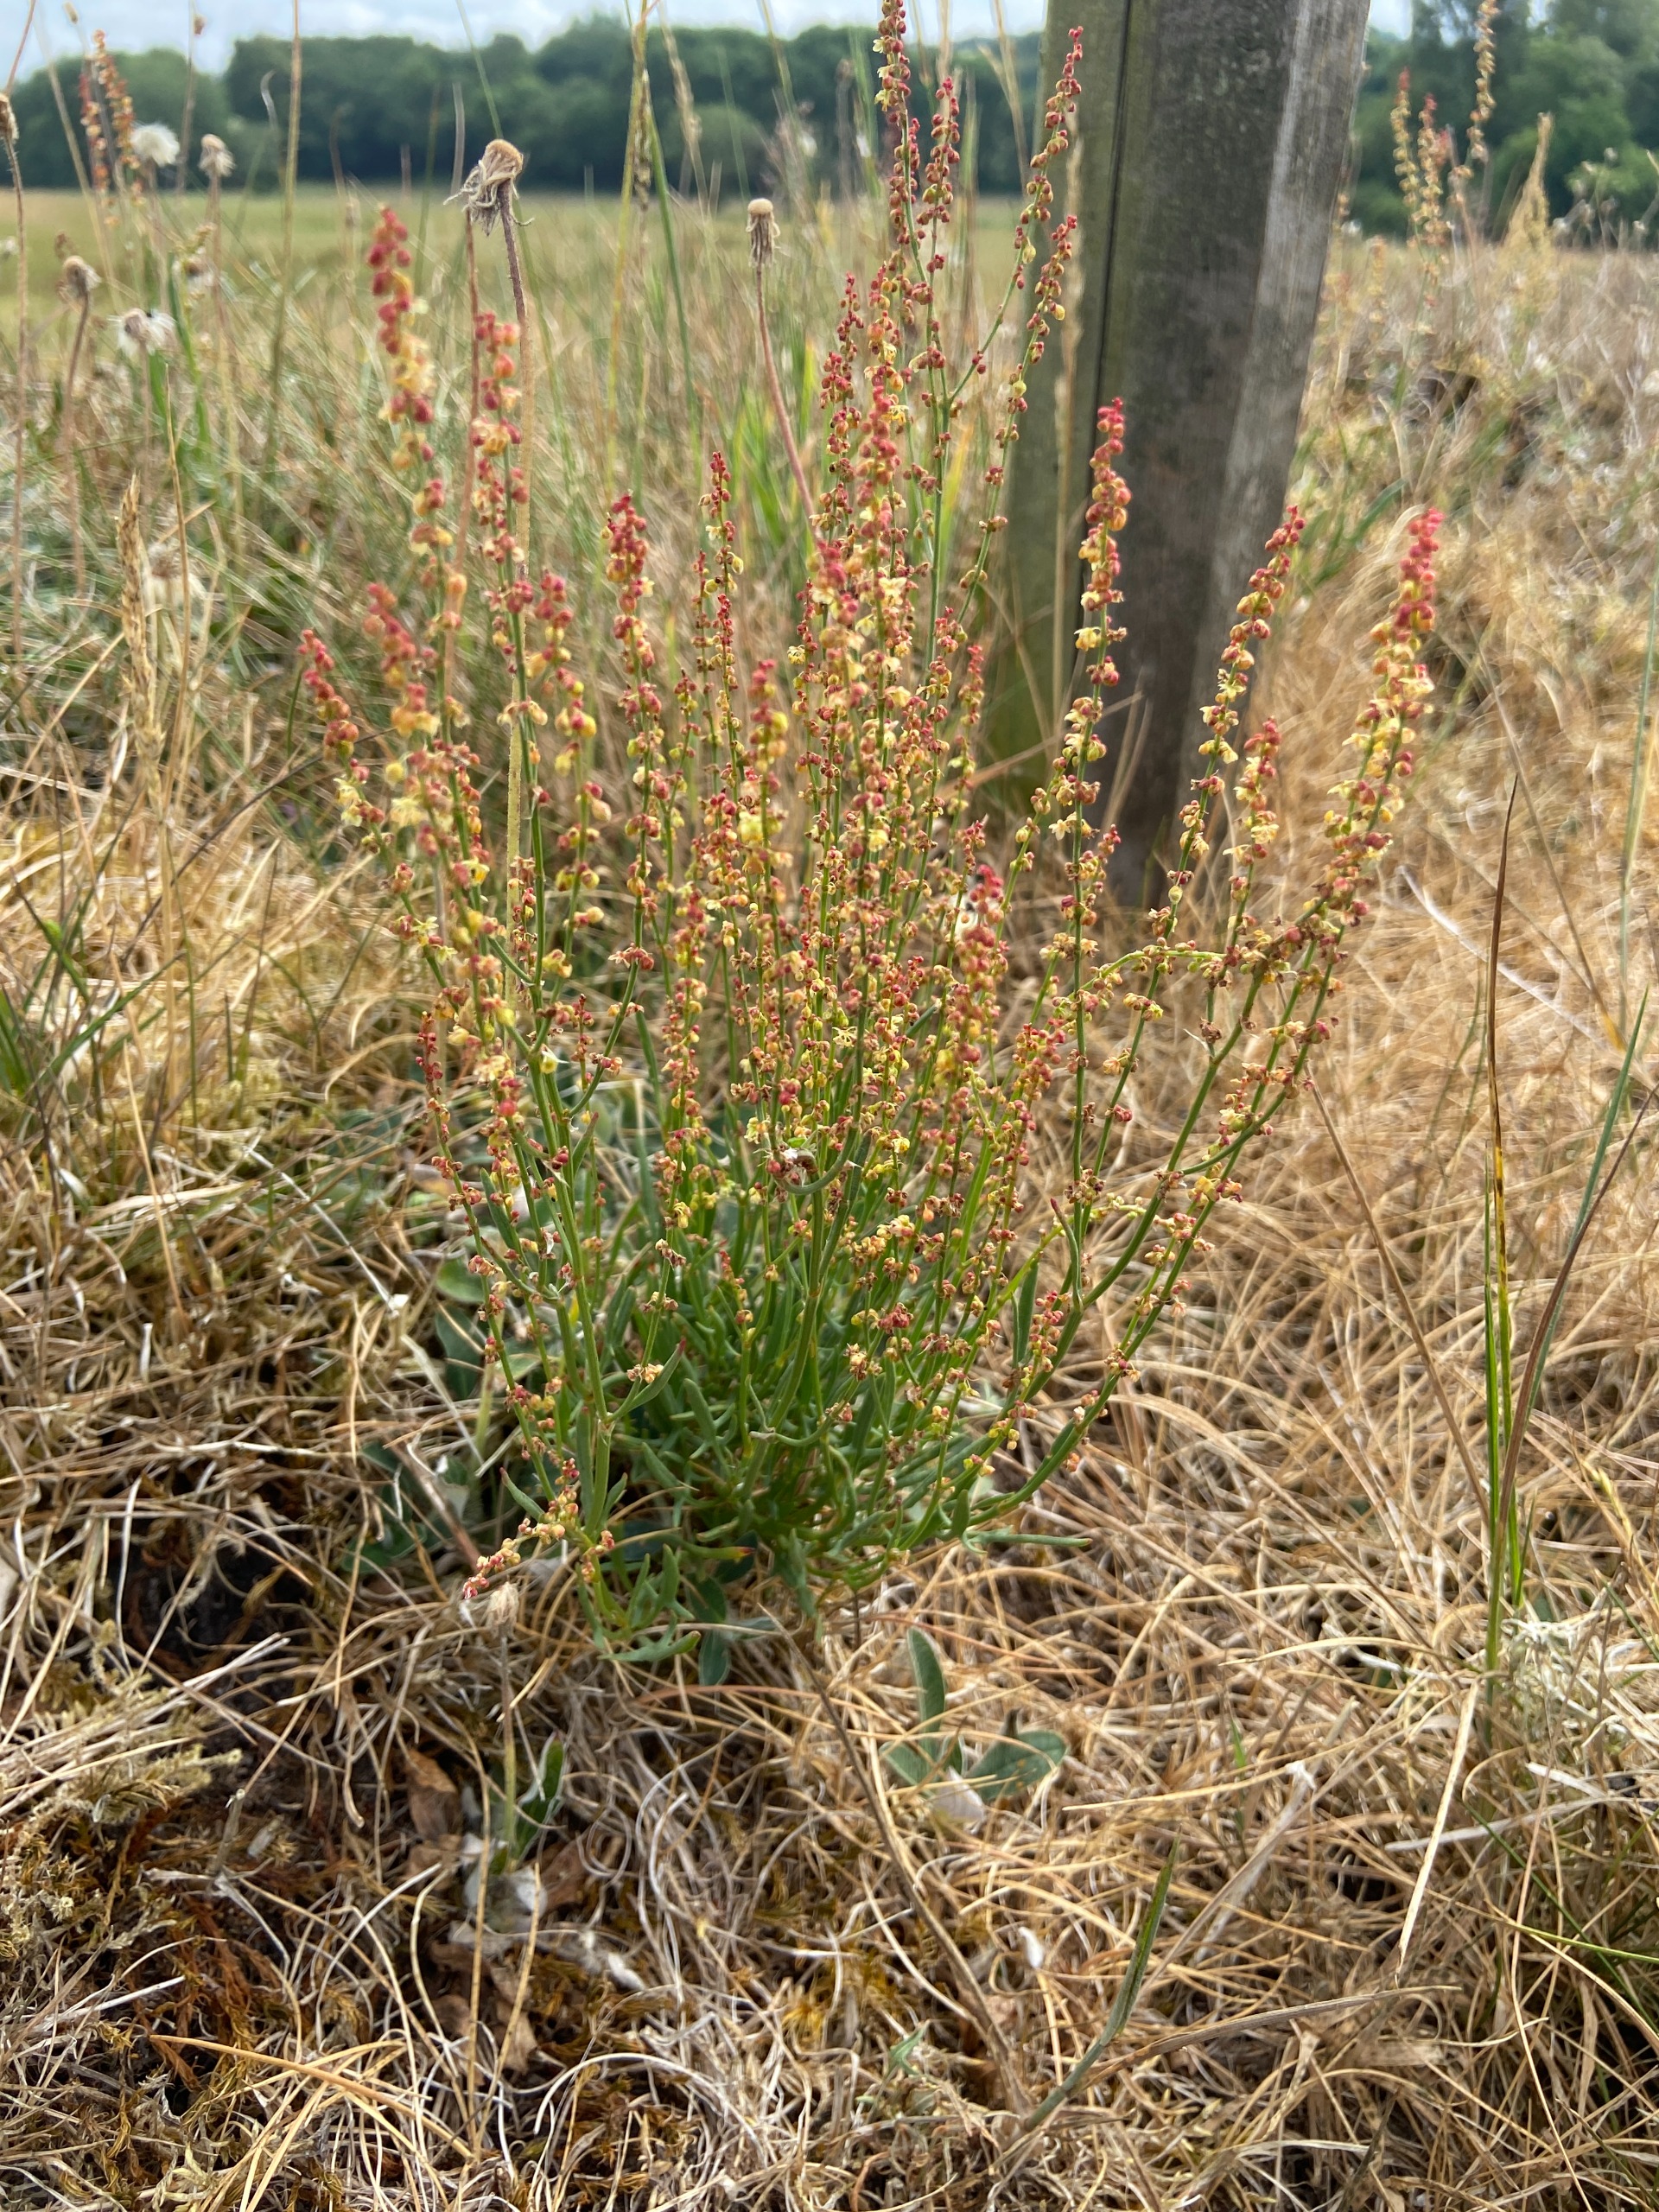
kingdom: Plantae
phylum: Tracheophyta
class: Magnoliopsida
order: Caryophyllales
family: Polygonaceae
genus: Rumex
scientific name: Rumex acetosella
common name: Rødknæ
